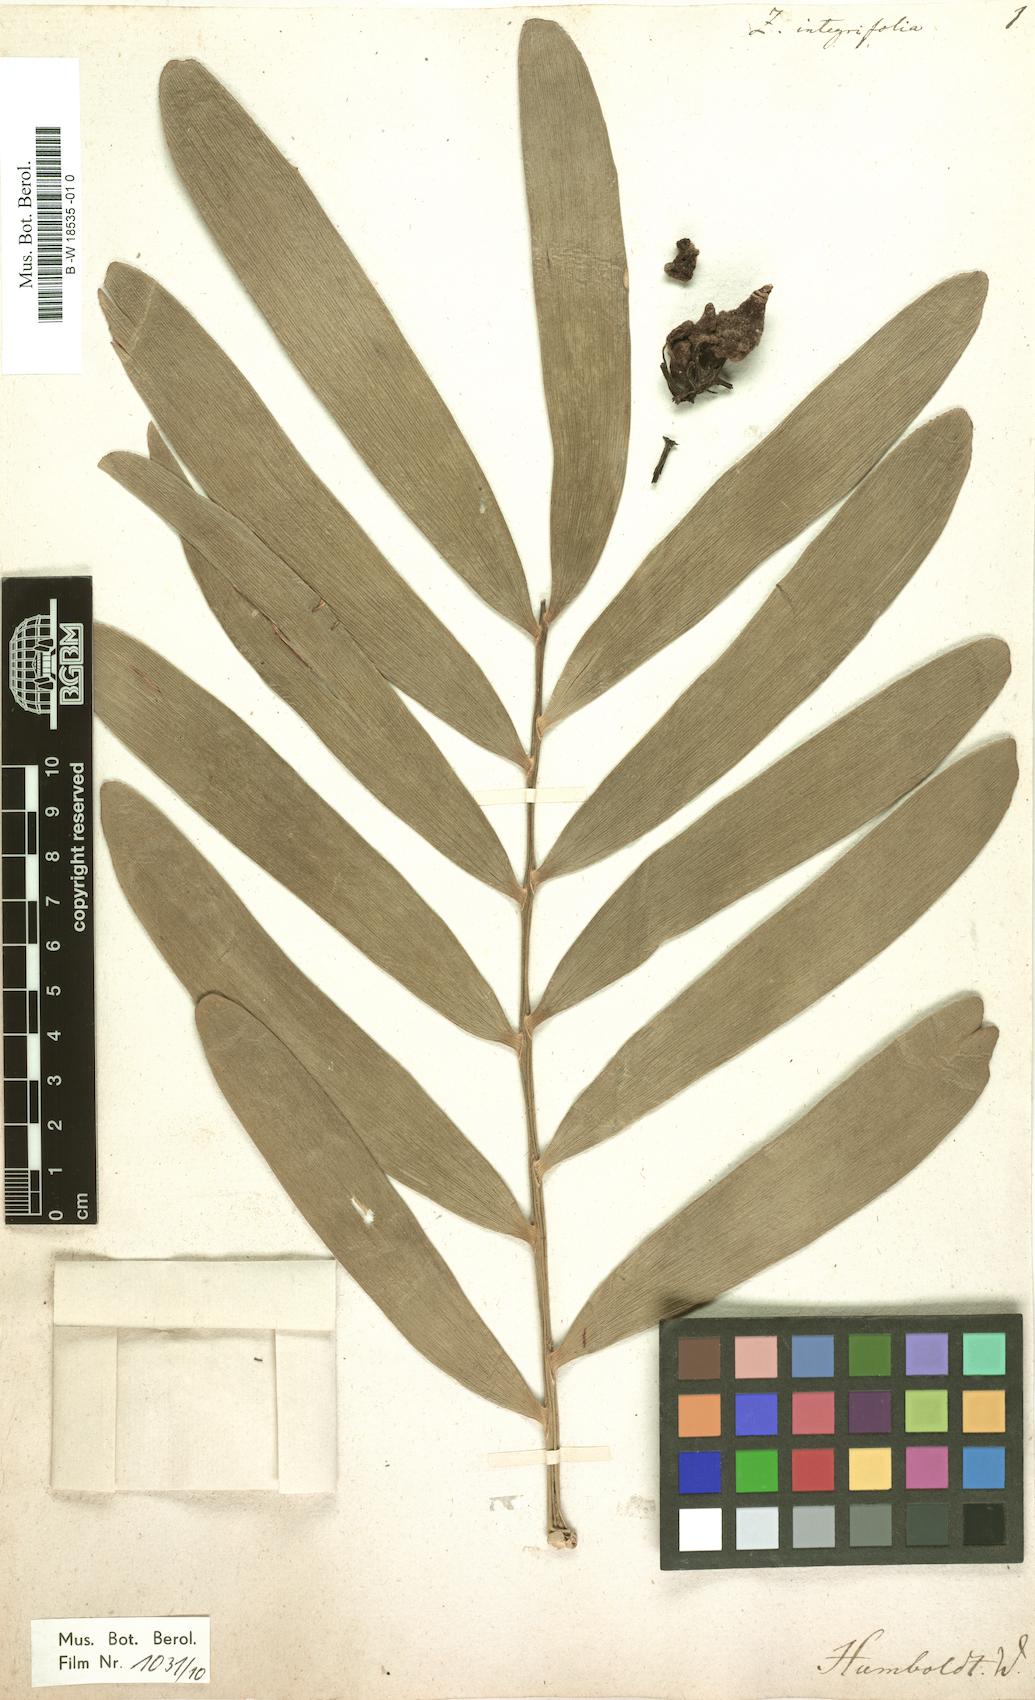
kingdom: Plantae
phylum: Tracheophyta
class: Cycadopsida
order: Cycadales
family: Zamiaceae
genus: Zamia
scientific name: Zamia integrifolia
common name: Florida arrowroot
